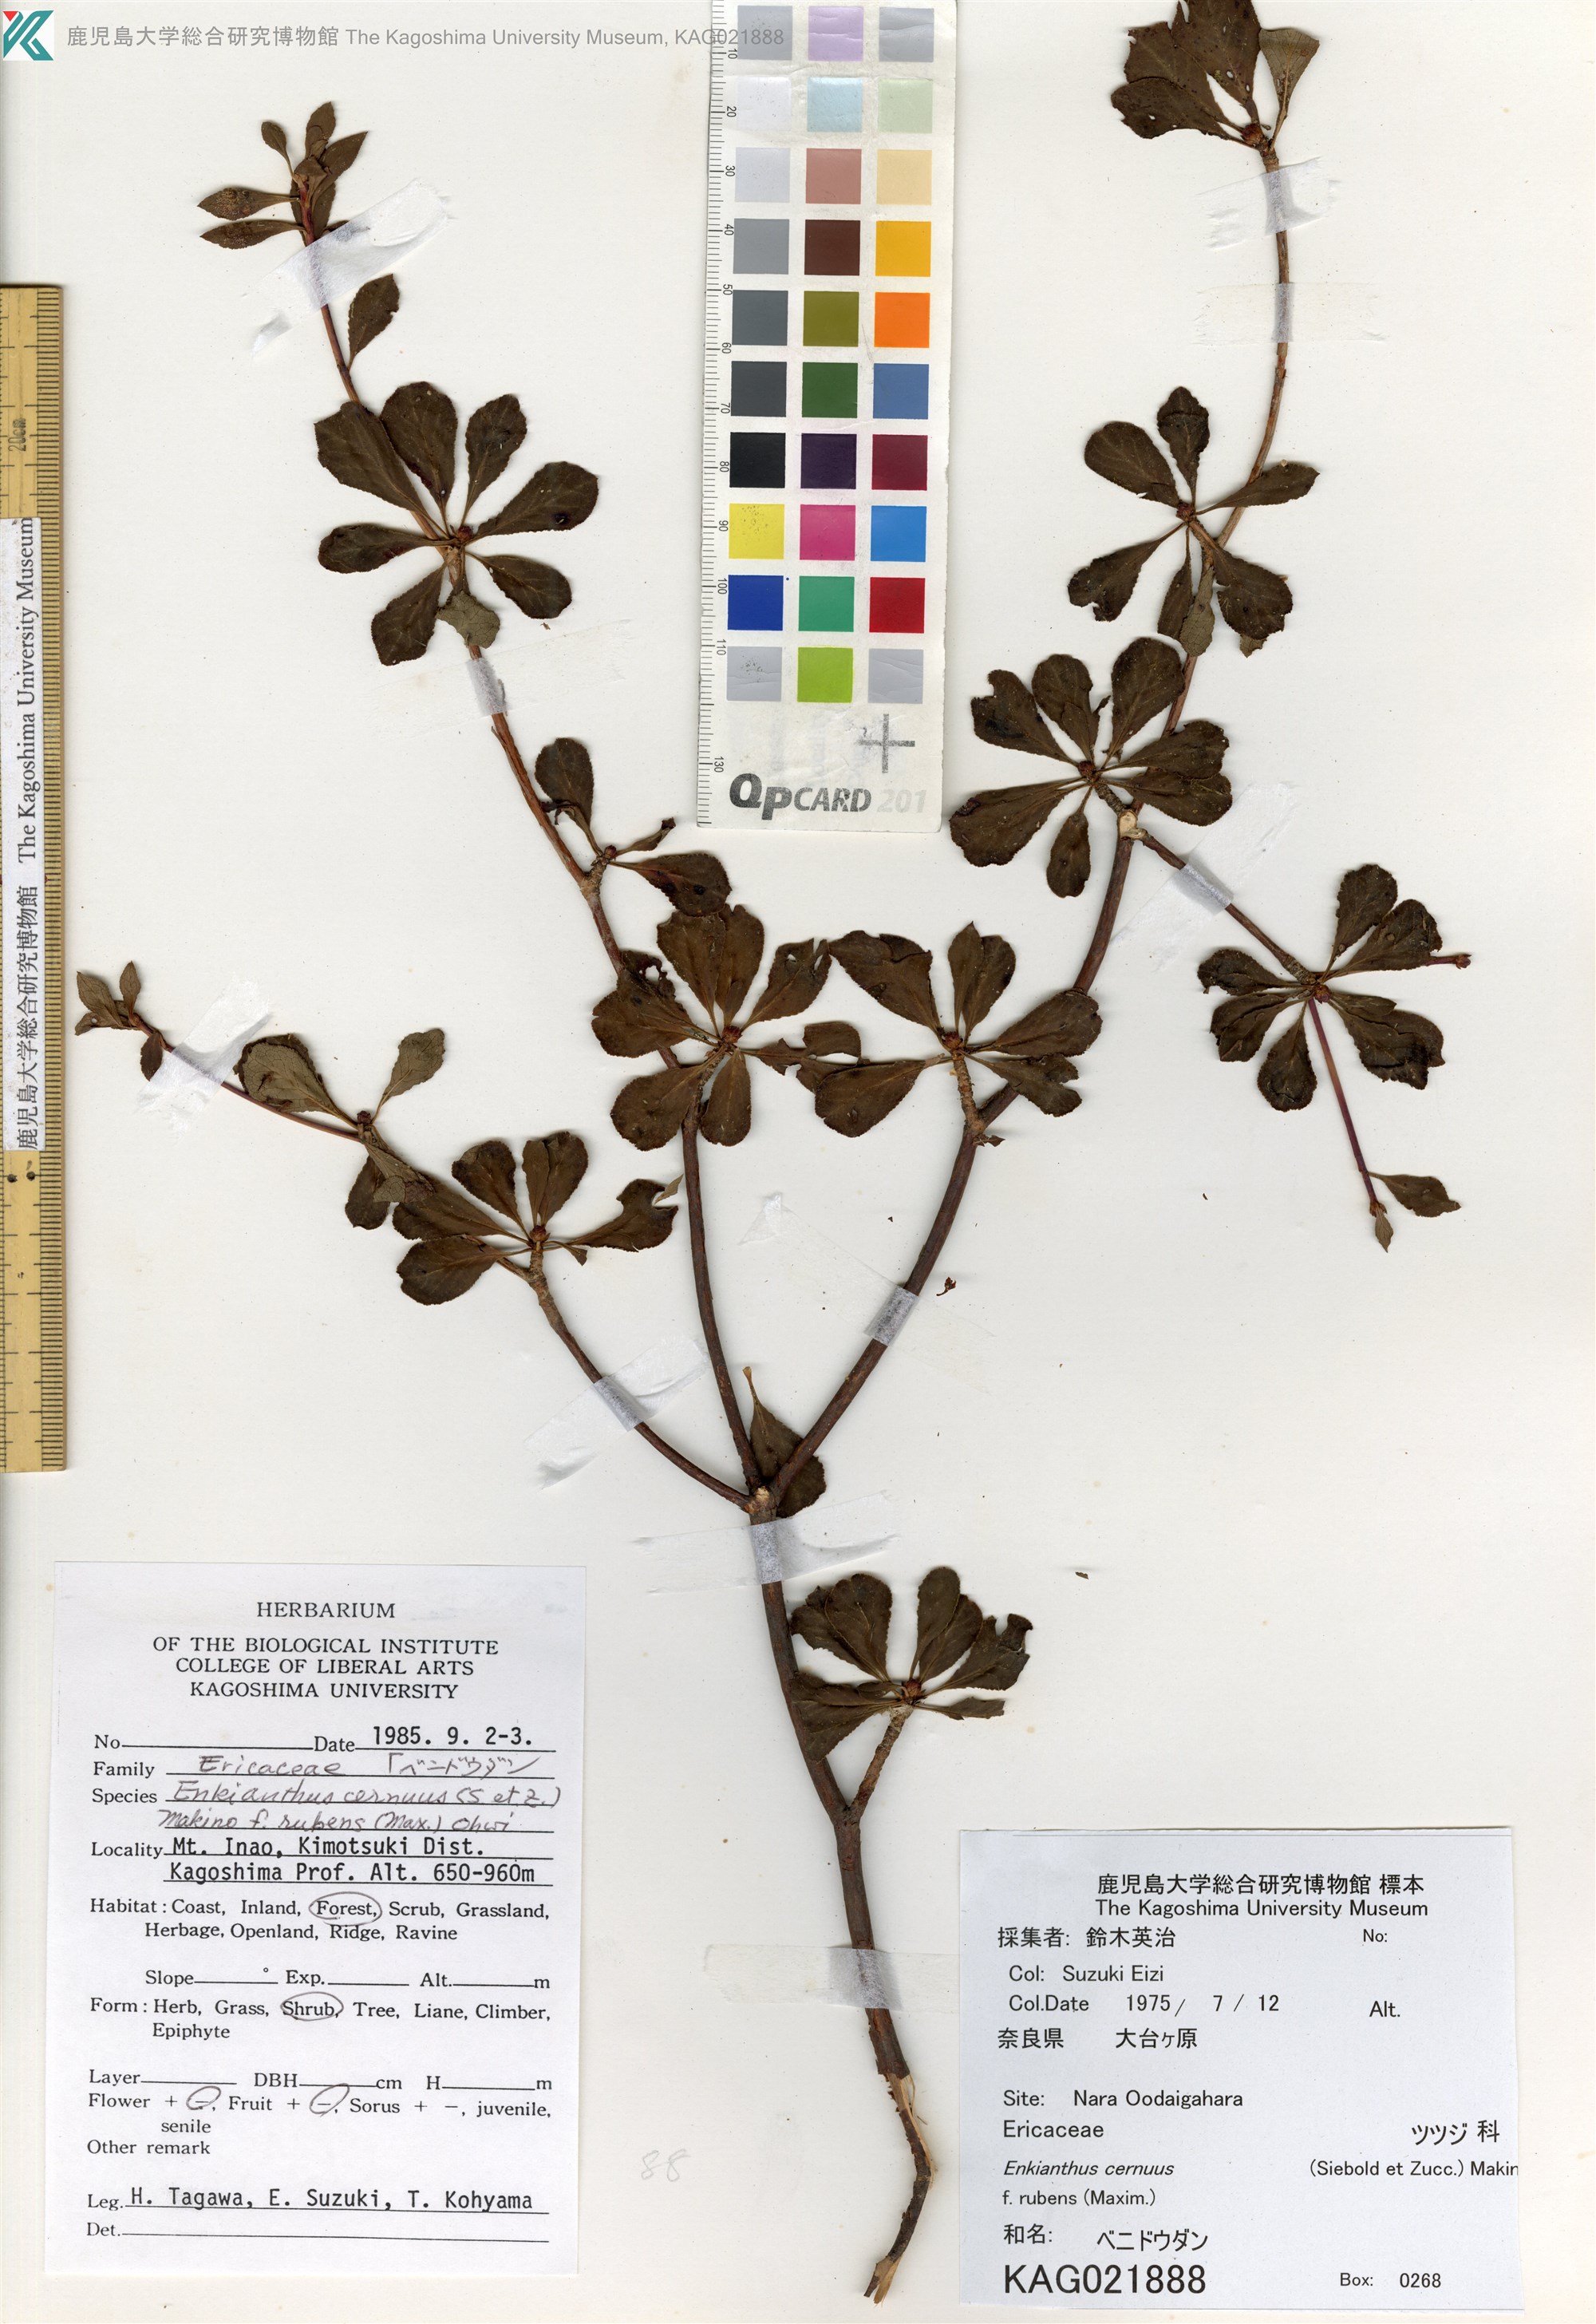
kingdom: Plantae
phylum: Tracheophyta
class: Magnoliopsida
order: Ericales
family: Ericaceae
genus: Enkianthus
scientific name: Enkianthus cernuus
